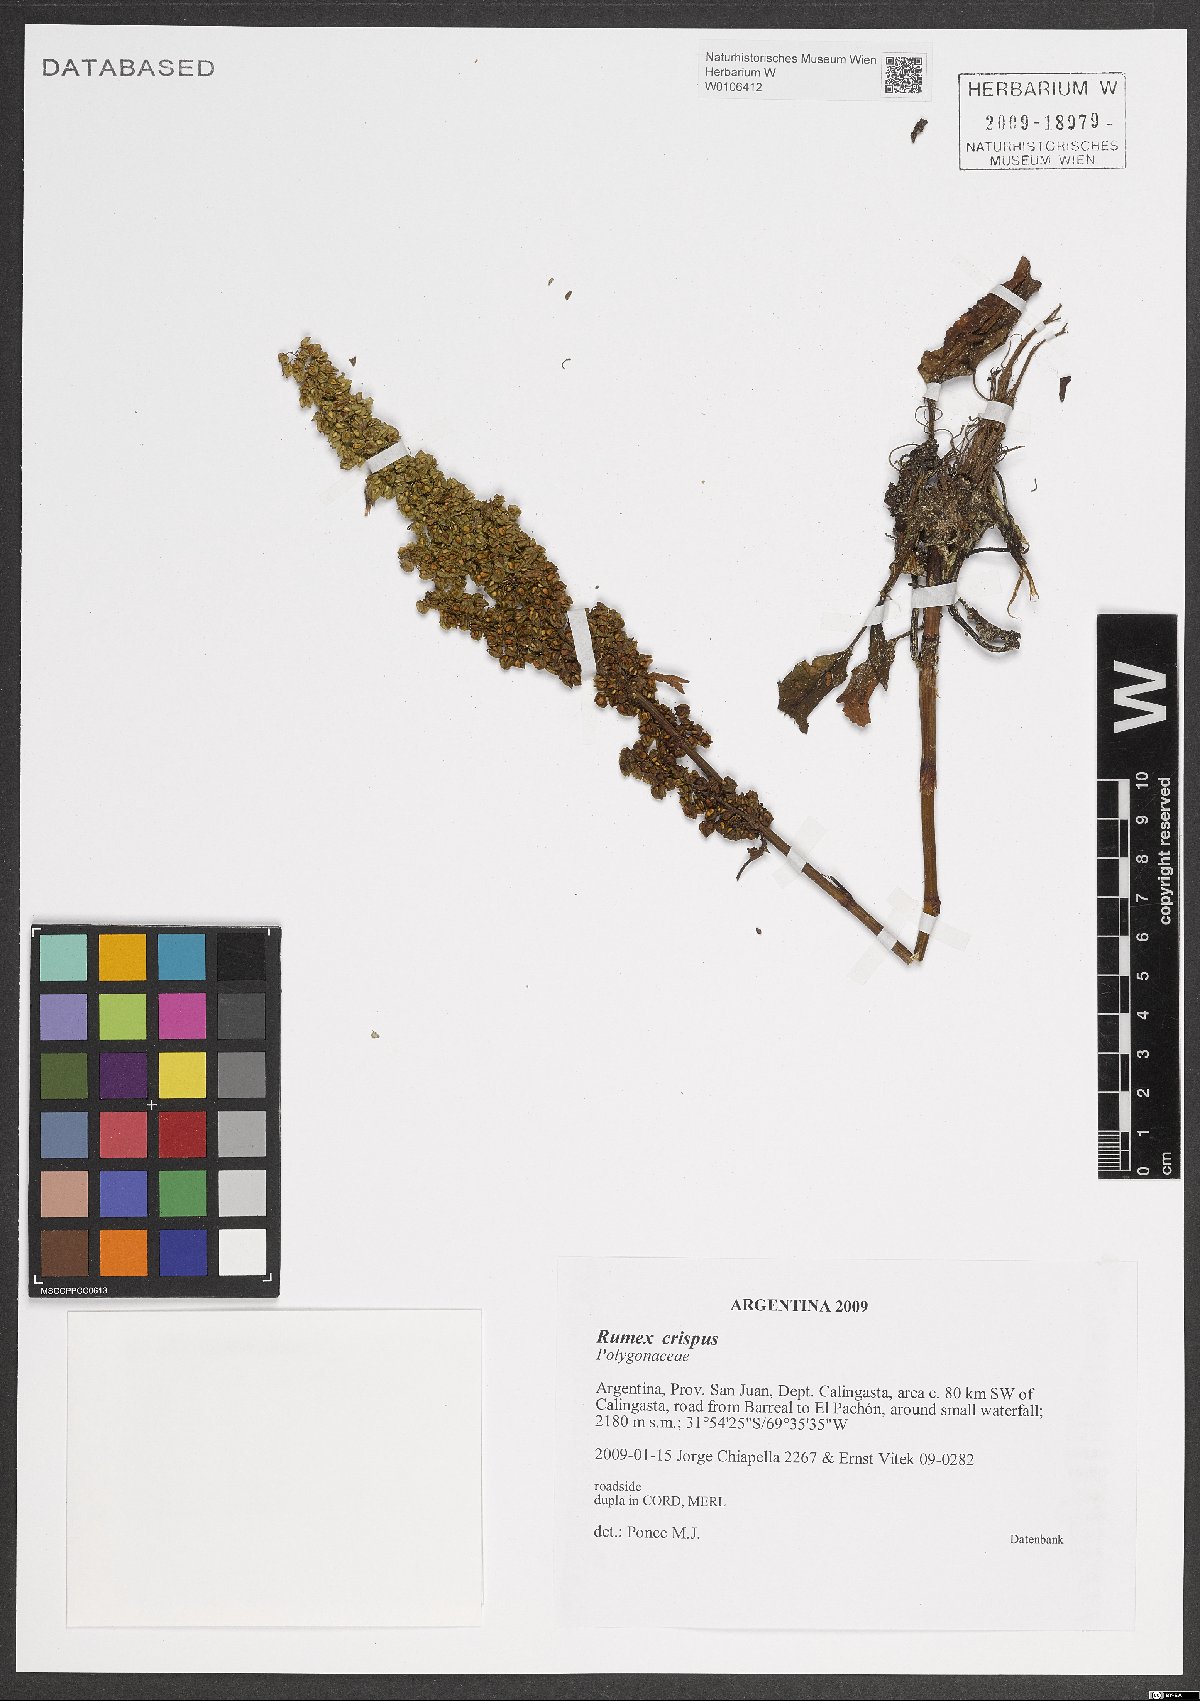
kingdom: Plantae
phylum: Tracheophyta
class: Magnoliopsida
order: Caryophyllales
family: Polygonaceae
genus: Rumex
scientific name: Rumex crispus
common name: Curled dock
